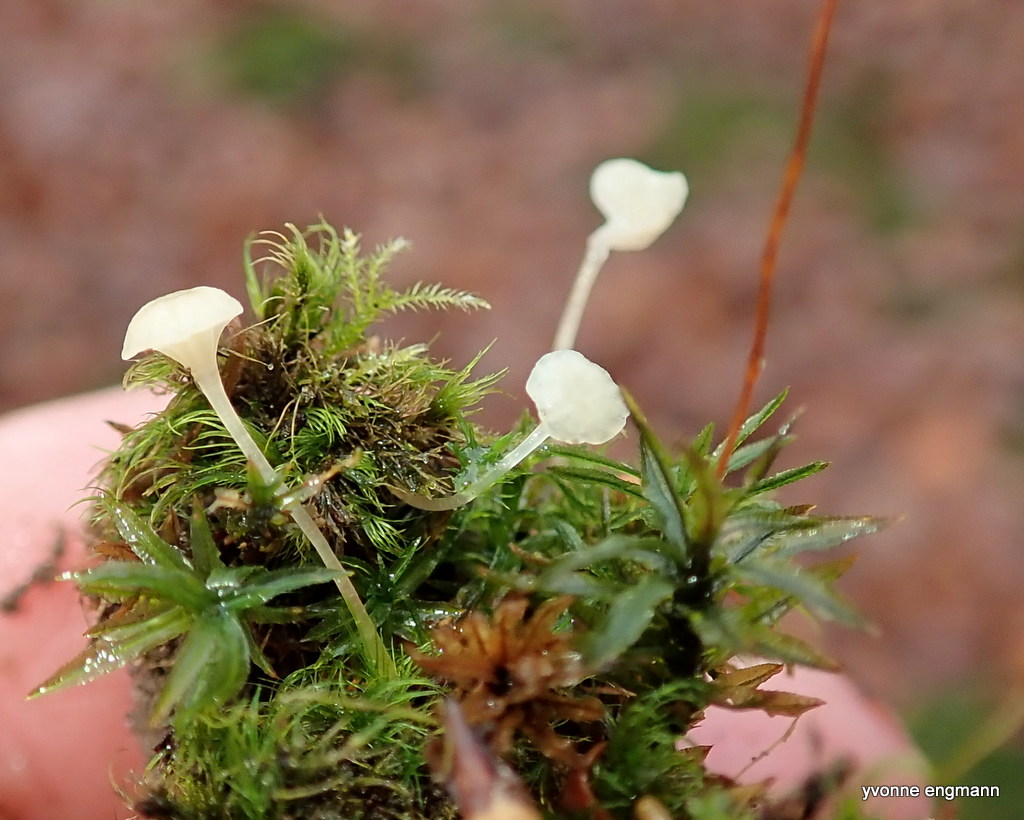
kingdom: Fungi
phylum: Basidiomycota
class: Agaricomycetes
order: Hymenochaetales
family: Rickenellaceae
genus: Rickenella
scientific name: Rickenella fibula
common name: orange mosnavlehat
